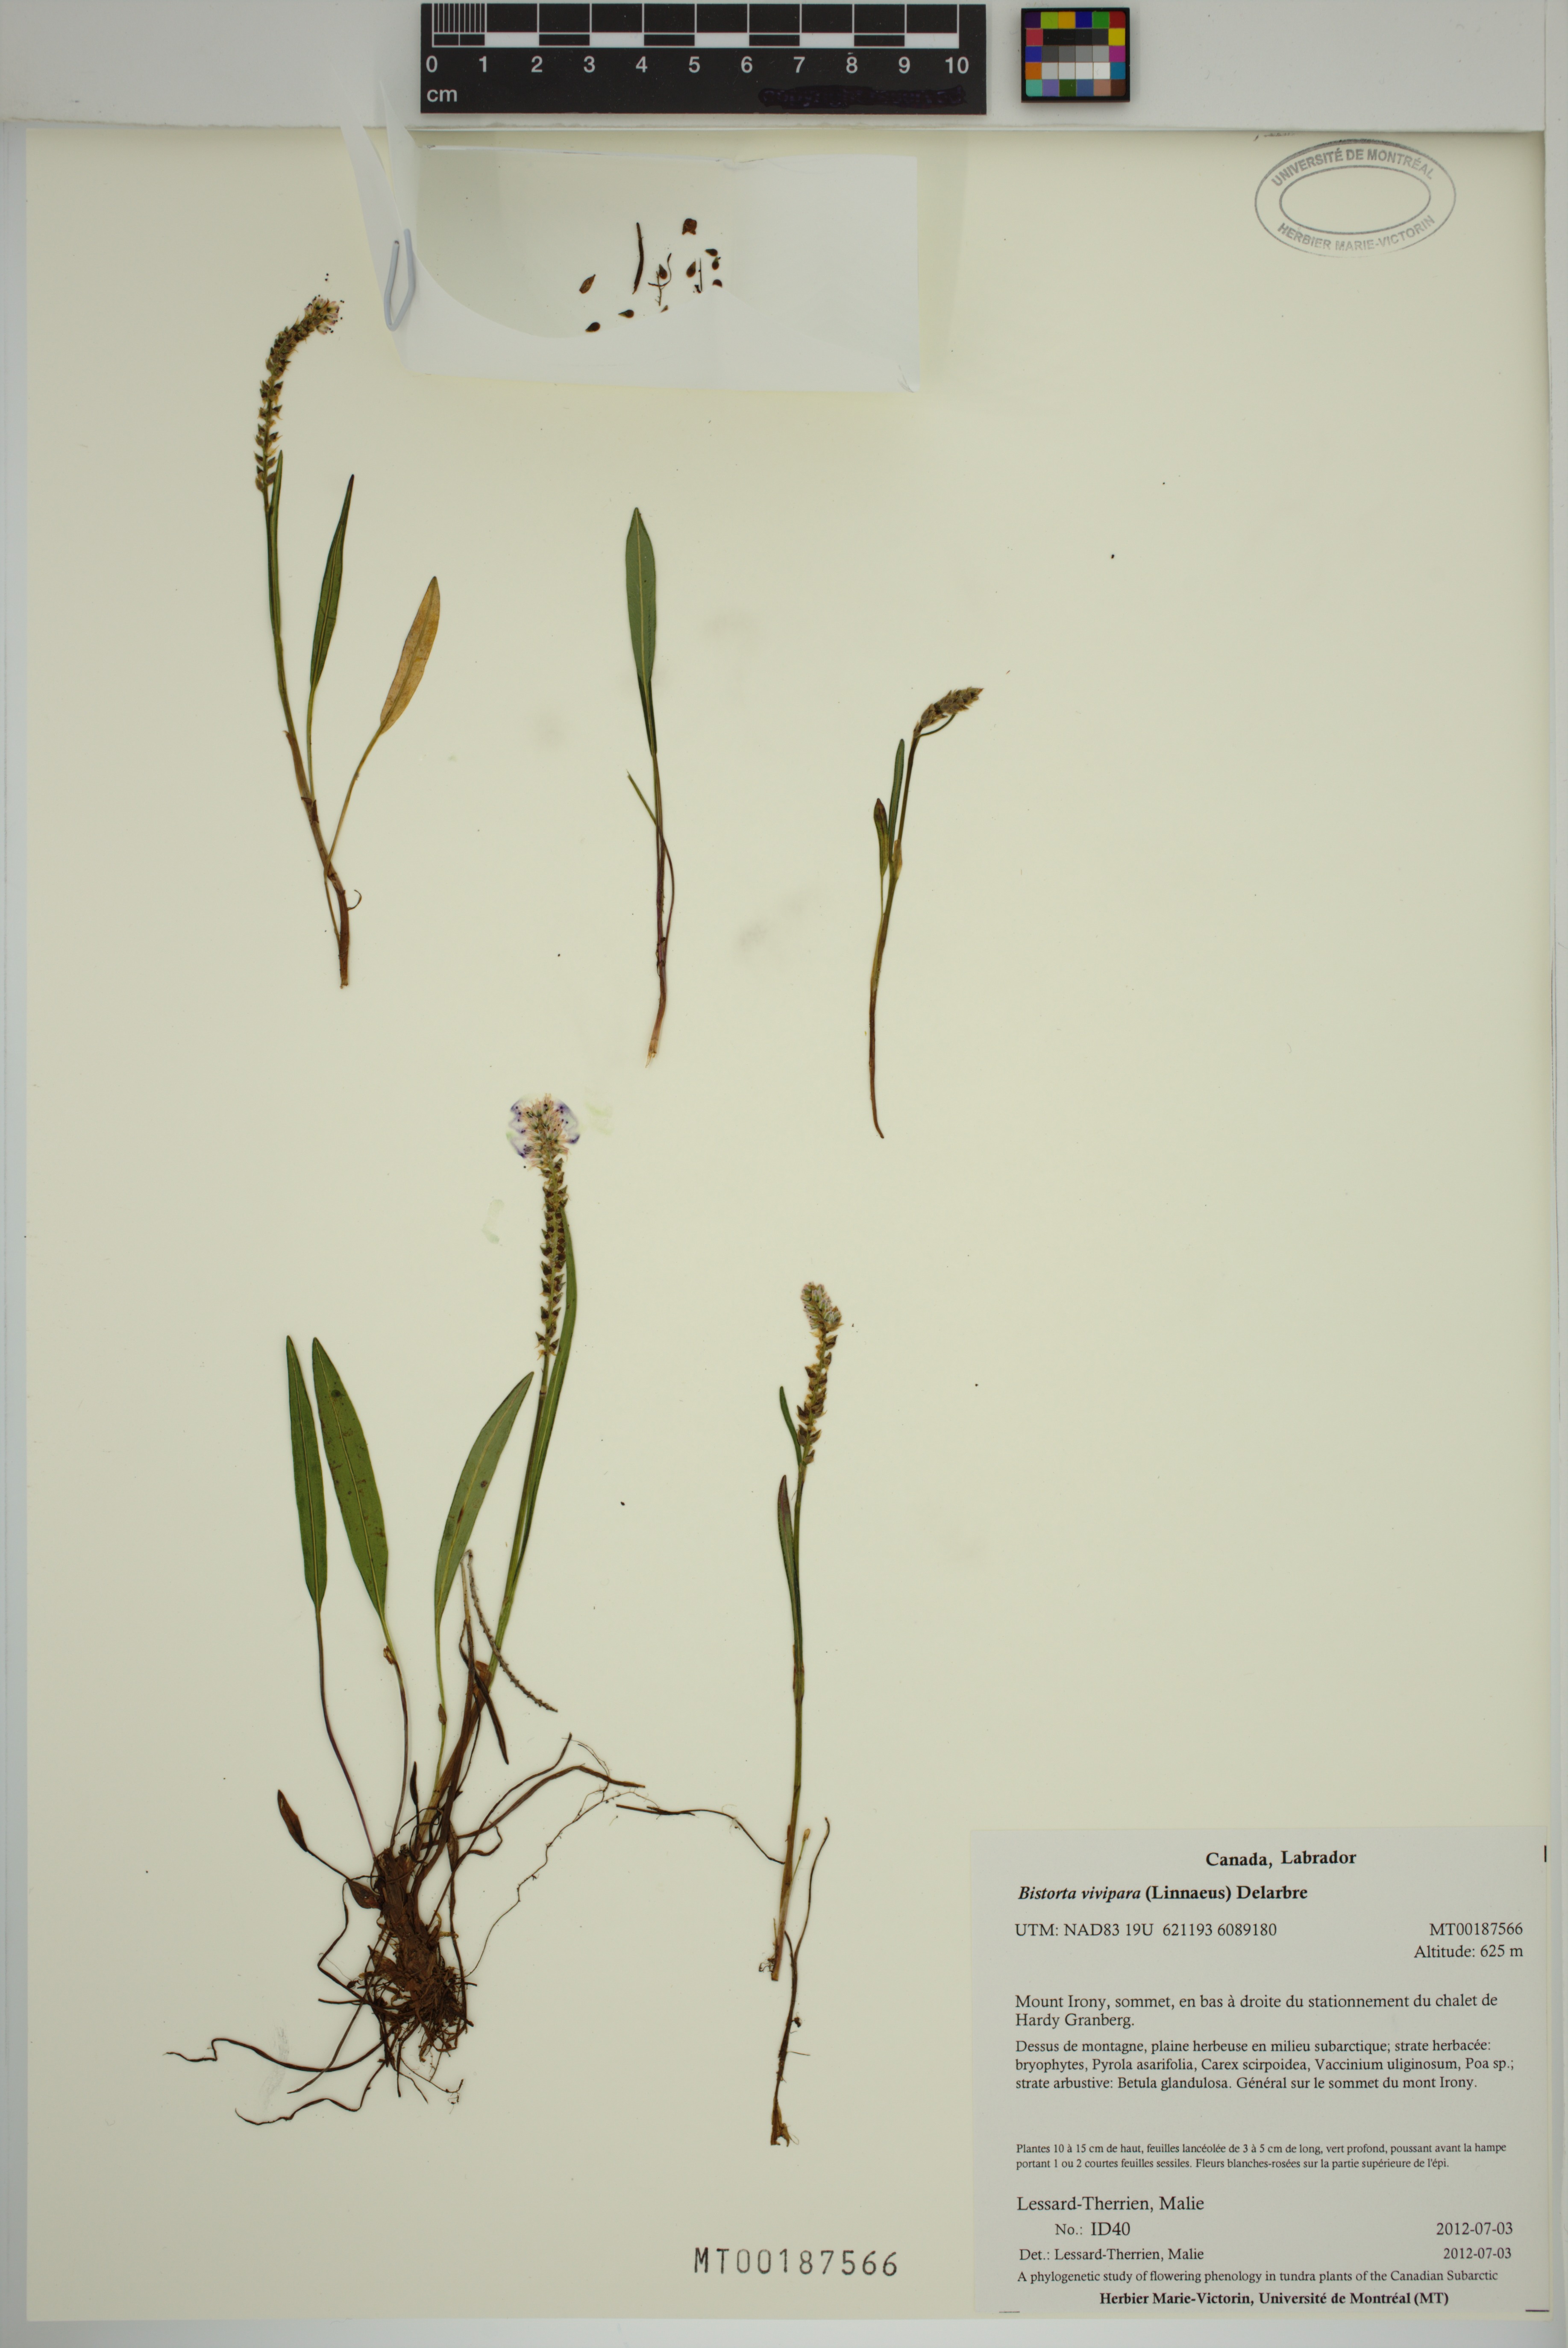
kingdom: Plantae
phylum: Tracheophyta
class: Magnoliopsida
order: Caryophyllales
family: Polygonaceae
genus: Bistorta
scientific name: Bistorta vivipara
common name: Alpine bistort
